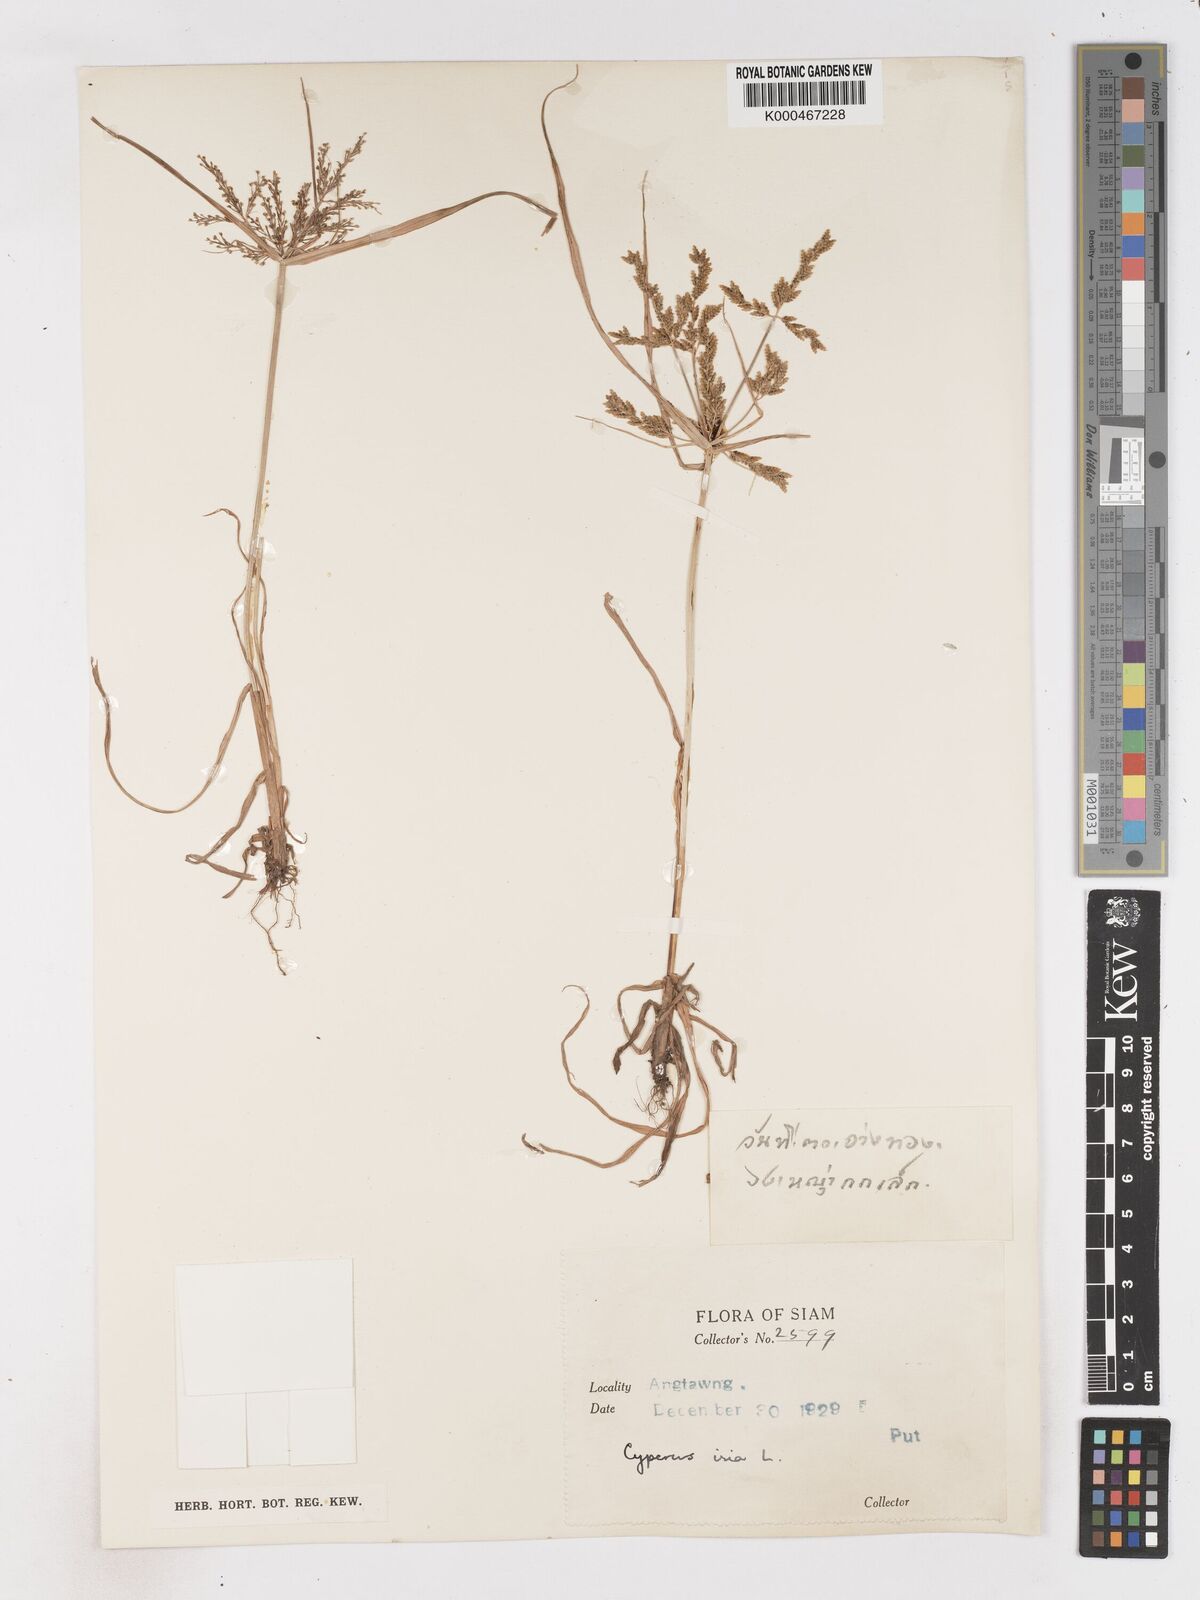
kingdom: Plantae
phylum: Tracheophyta
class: Liliopsida
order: Poales
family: Cyperaceae
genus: Cyperus
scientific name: Cyperus iria
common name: Ricefield flatsedge
